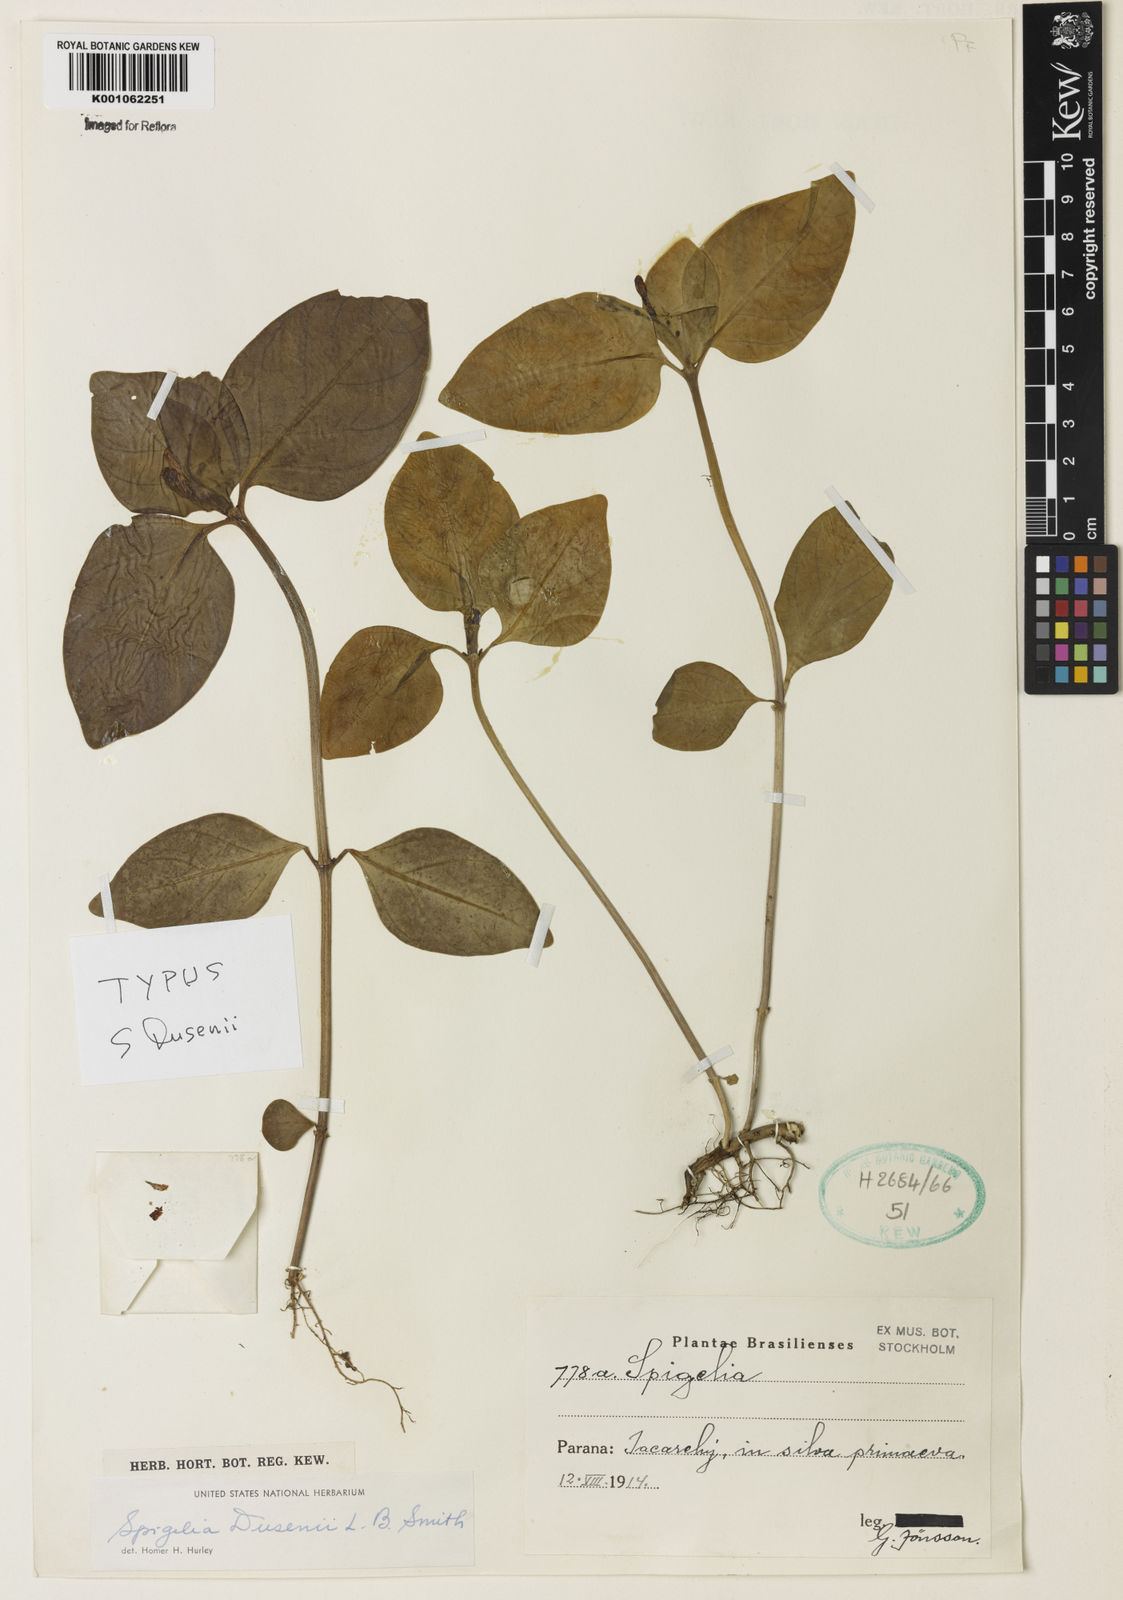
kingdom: Plantae
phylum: Tracheophyta
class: Magnoliopsida
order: Gentianales
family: Loganiaceae
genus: Spigelia
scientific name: Spigelia beyrichiana
